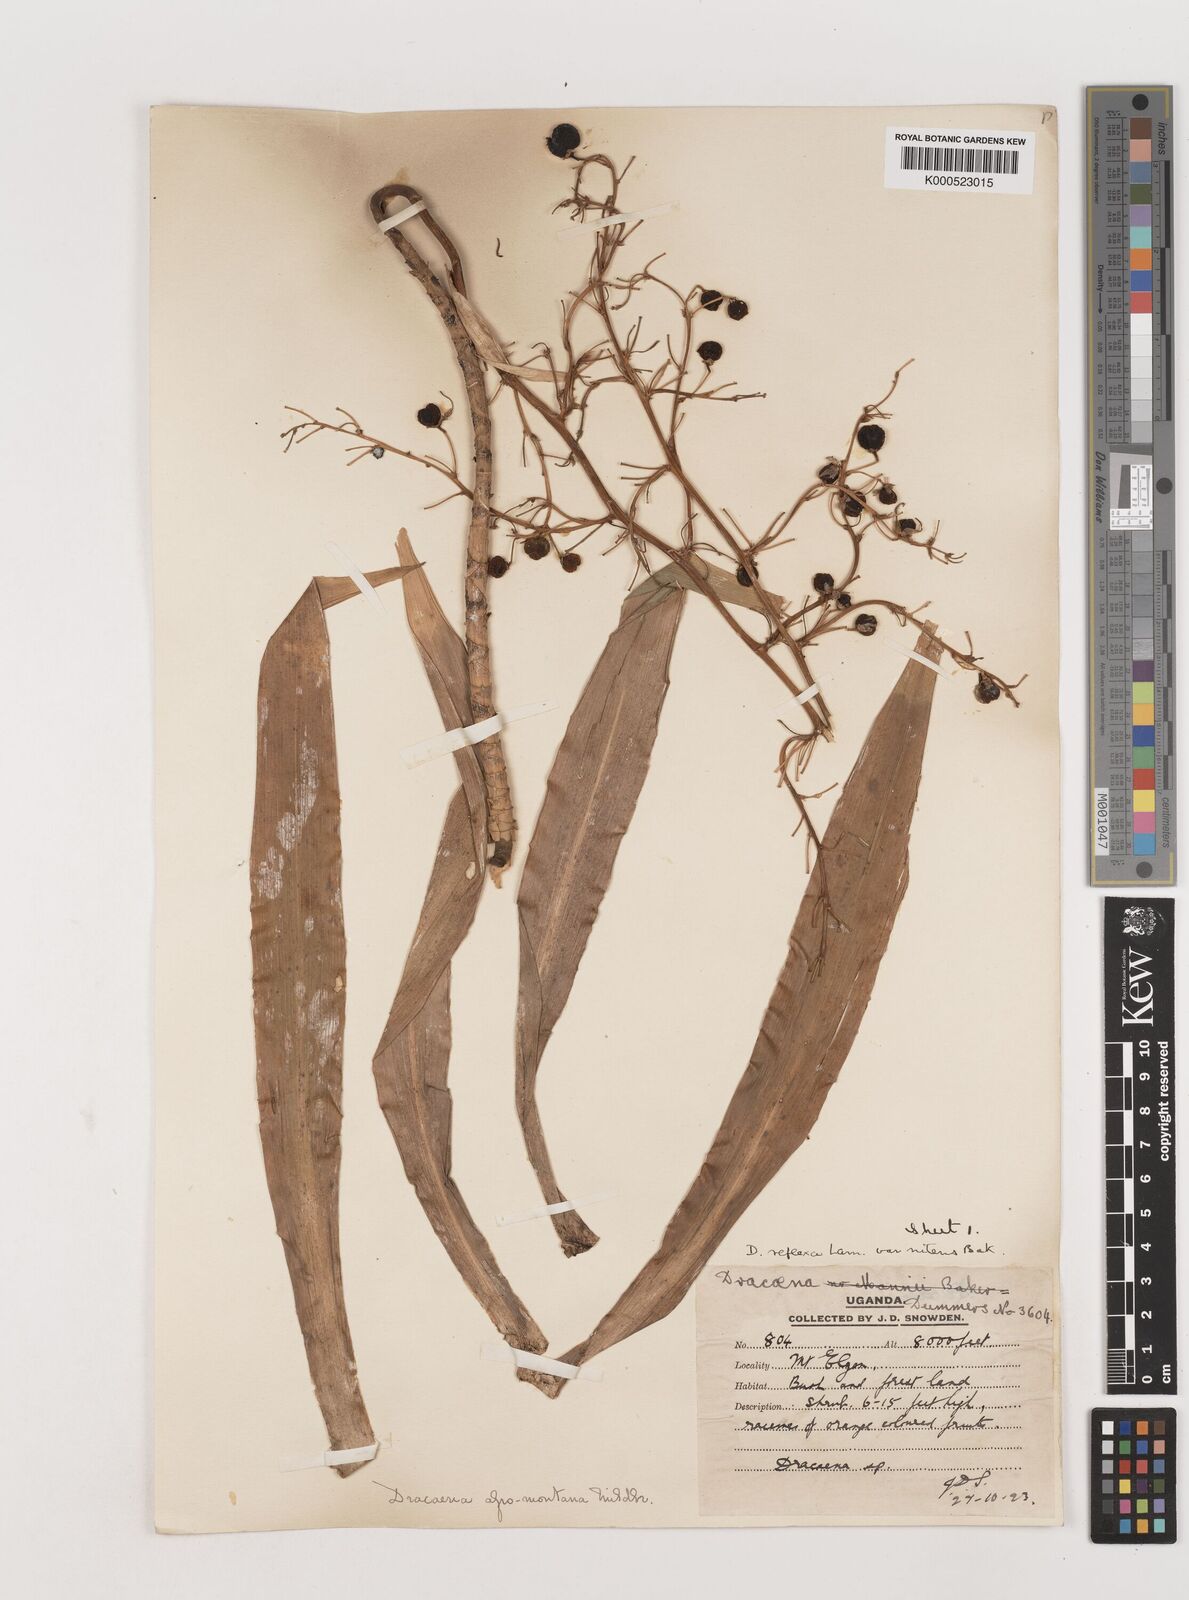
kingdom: Plantae
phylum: Tracheophyta
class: Liliopsida
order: Asparagales
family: Asparagaceae
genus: Dracaena
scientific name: Dracaena afromontana
